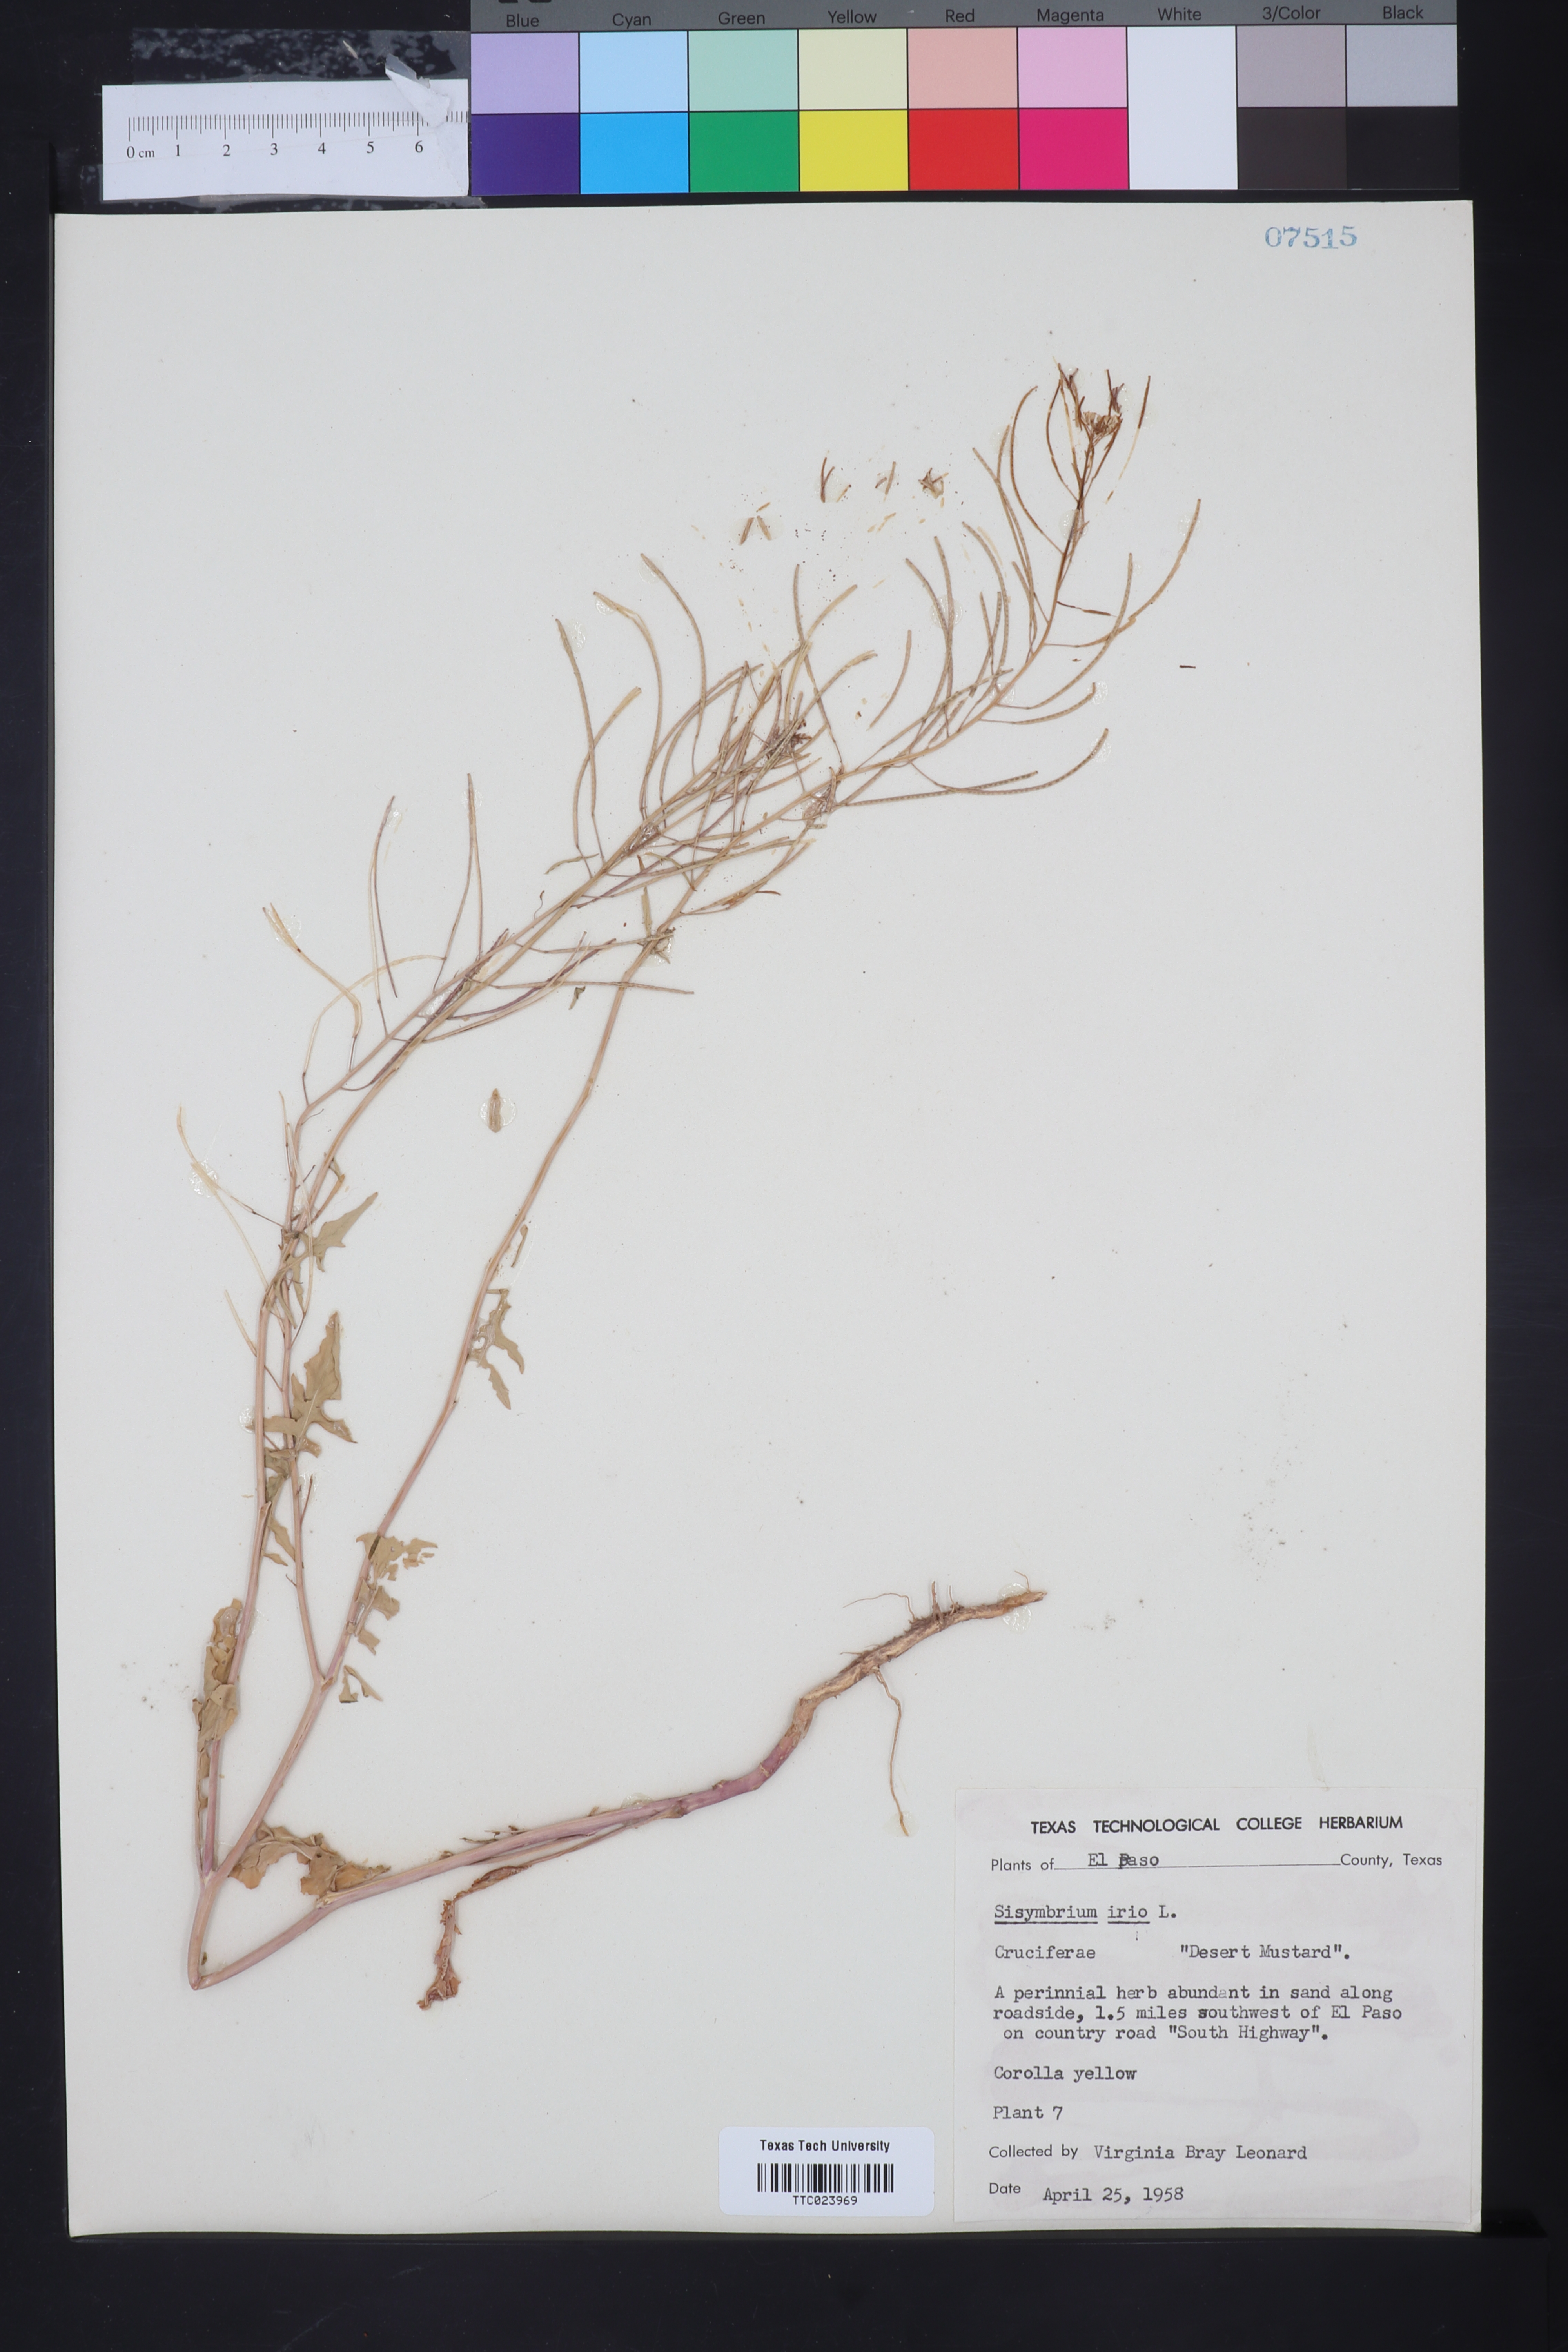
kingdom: Plantae
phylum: Tracheophyta
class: Magnoliopsida
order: Brassicales
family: Brassicaceae
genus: Sisymbrium
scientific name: Sisymbrium irio
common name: London rocket
